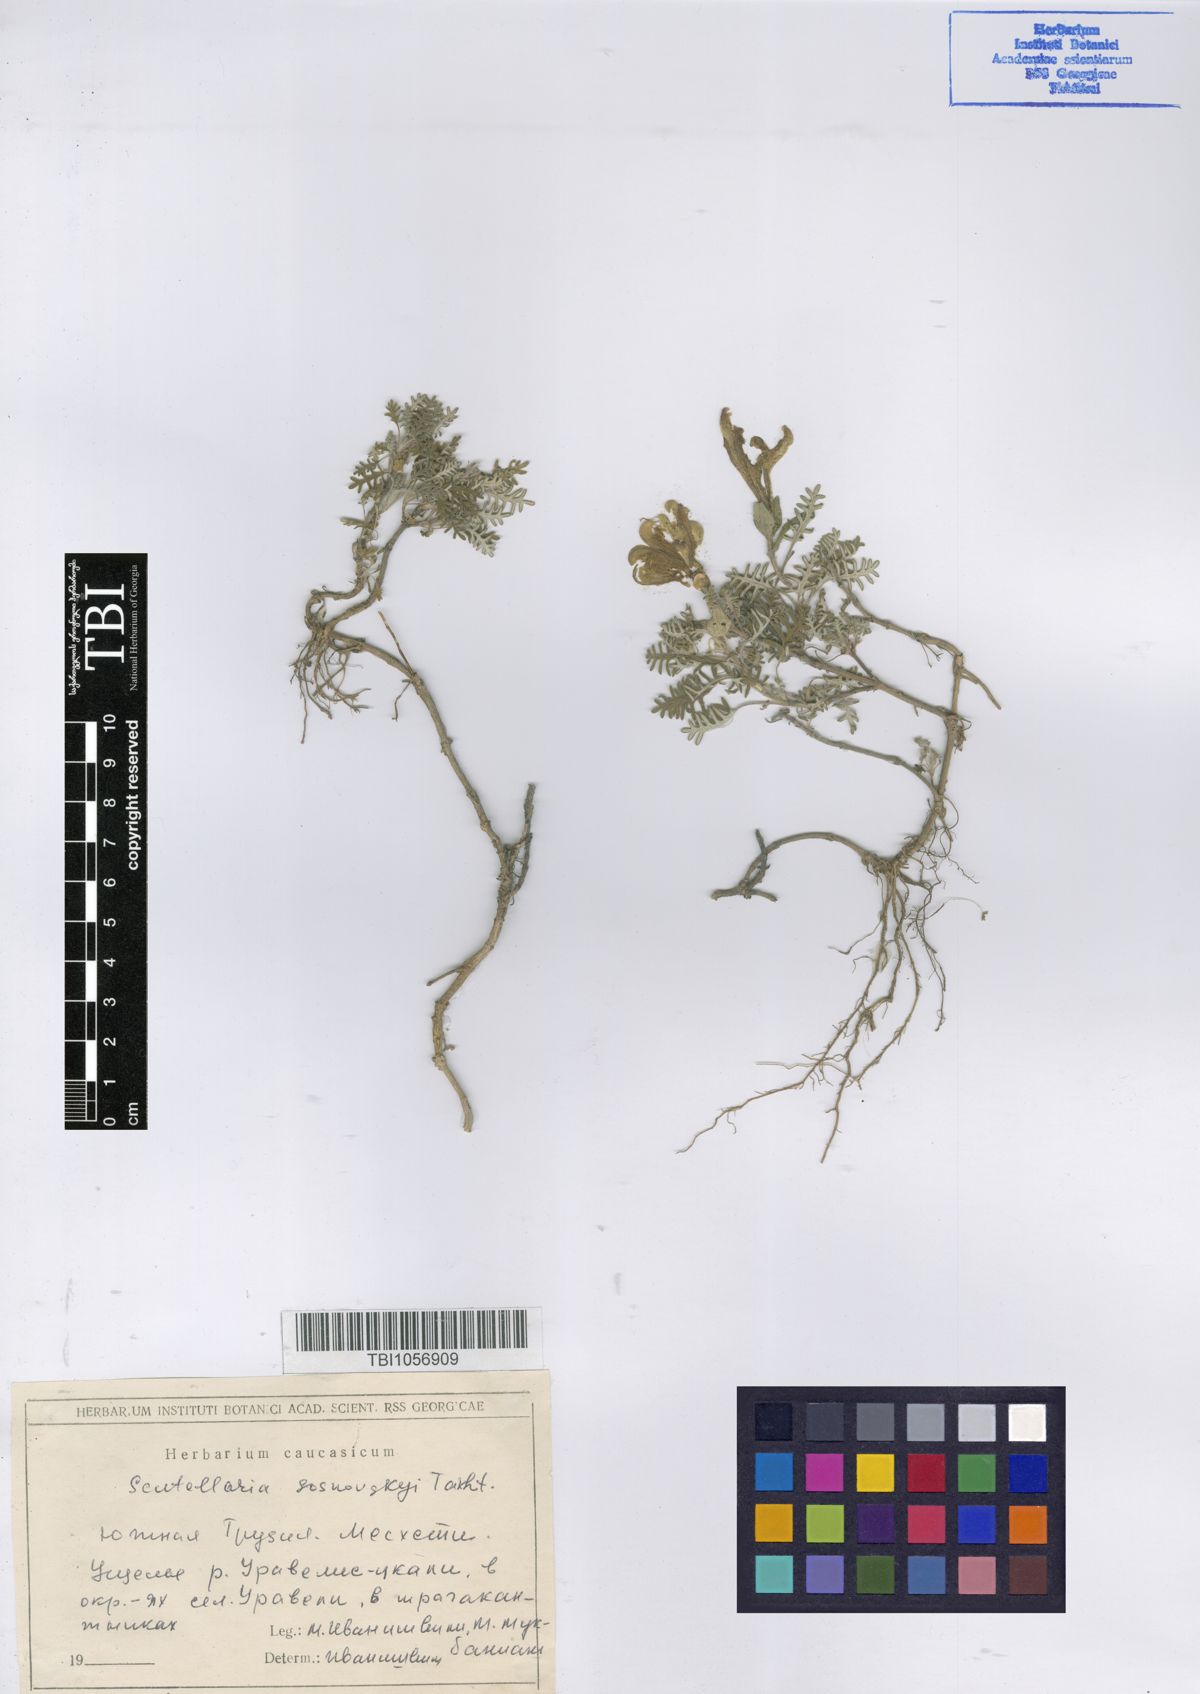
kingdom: Plantae
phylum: Tracheophyta
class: Magnoliopsida
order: Lamiales
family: Lamiaceae
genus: Scutellaria
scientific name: Scutellaria sosnowskyi
